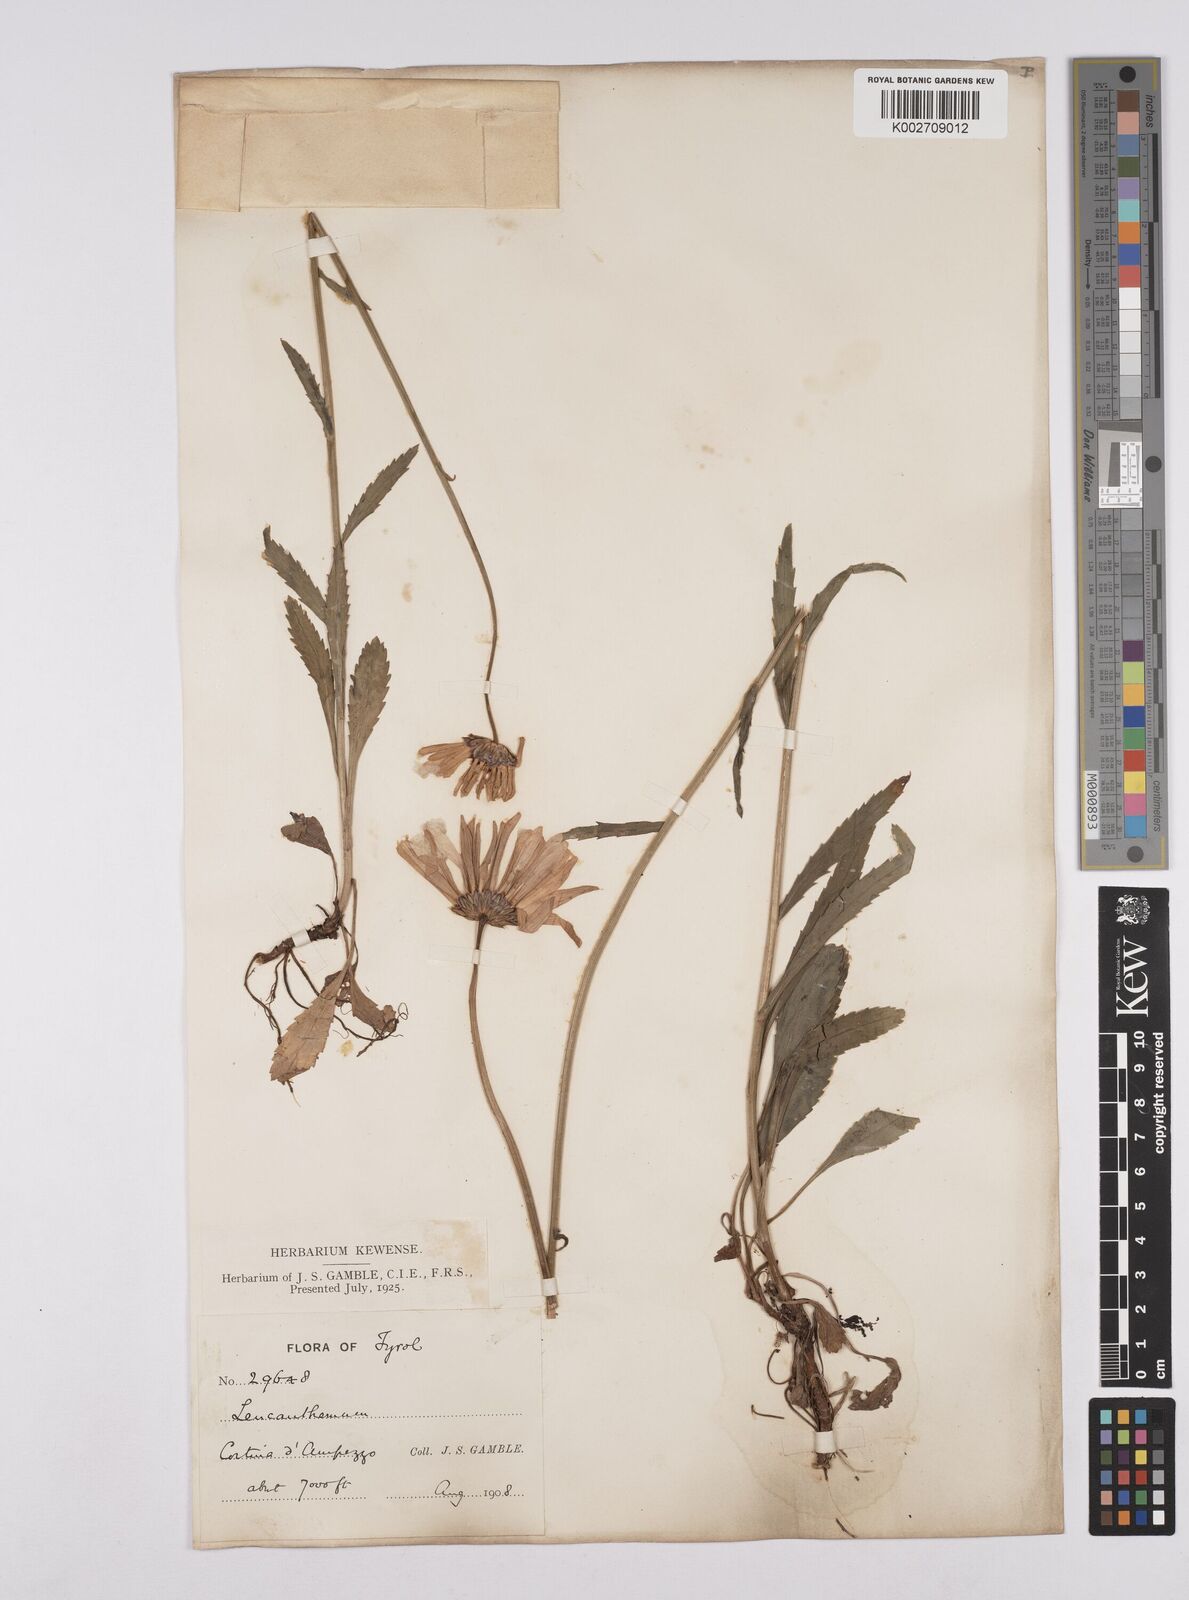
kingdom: Plantae
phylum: Tracheophyta
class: Magnoliopsida
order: Asterales
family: Asteraceae
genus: Leucanthemum
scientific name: Leucanthemum heterophyllum
